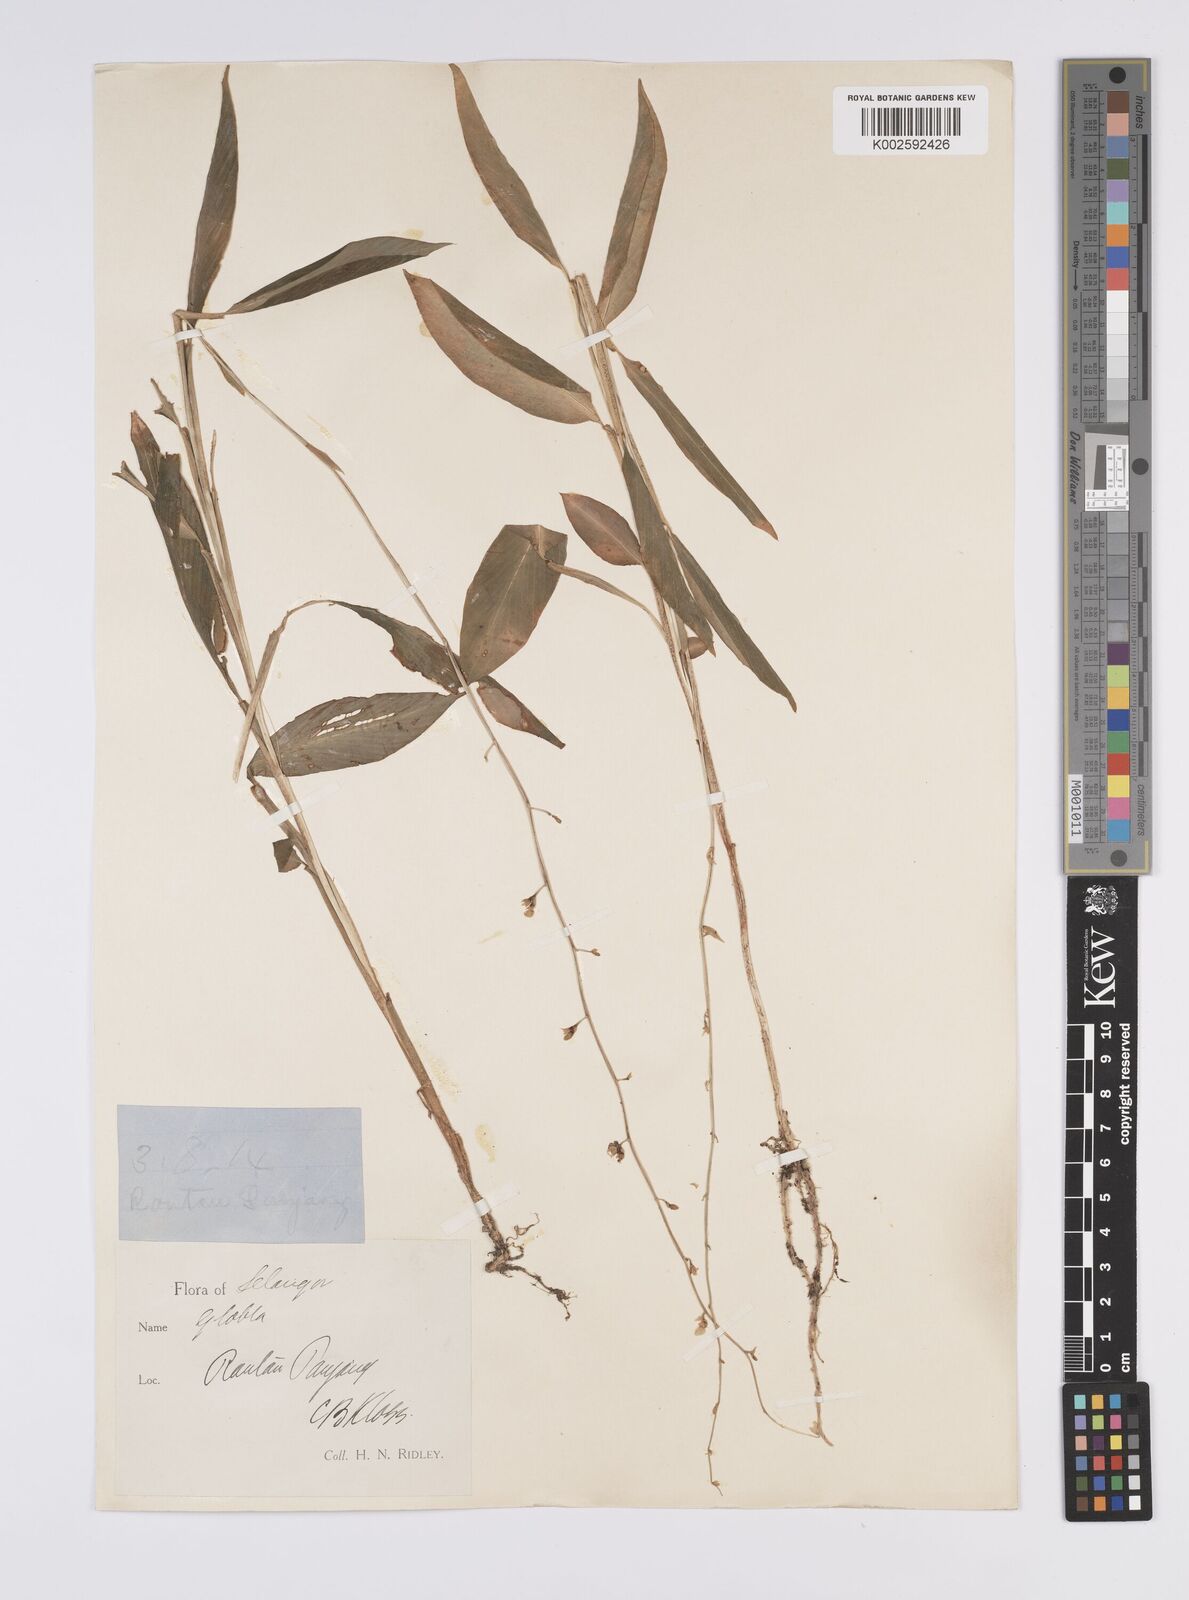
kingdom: Plantae
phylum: Tracheophyta
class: Liliopsida
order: Zingiberales
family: Zingiberaceae
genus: Globba
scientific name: Globba pendula
